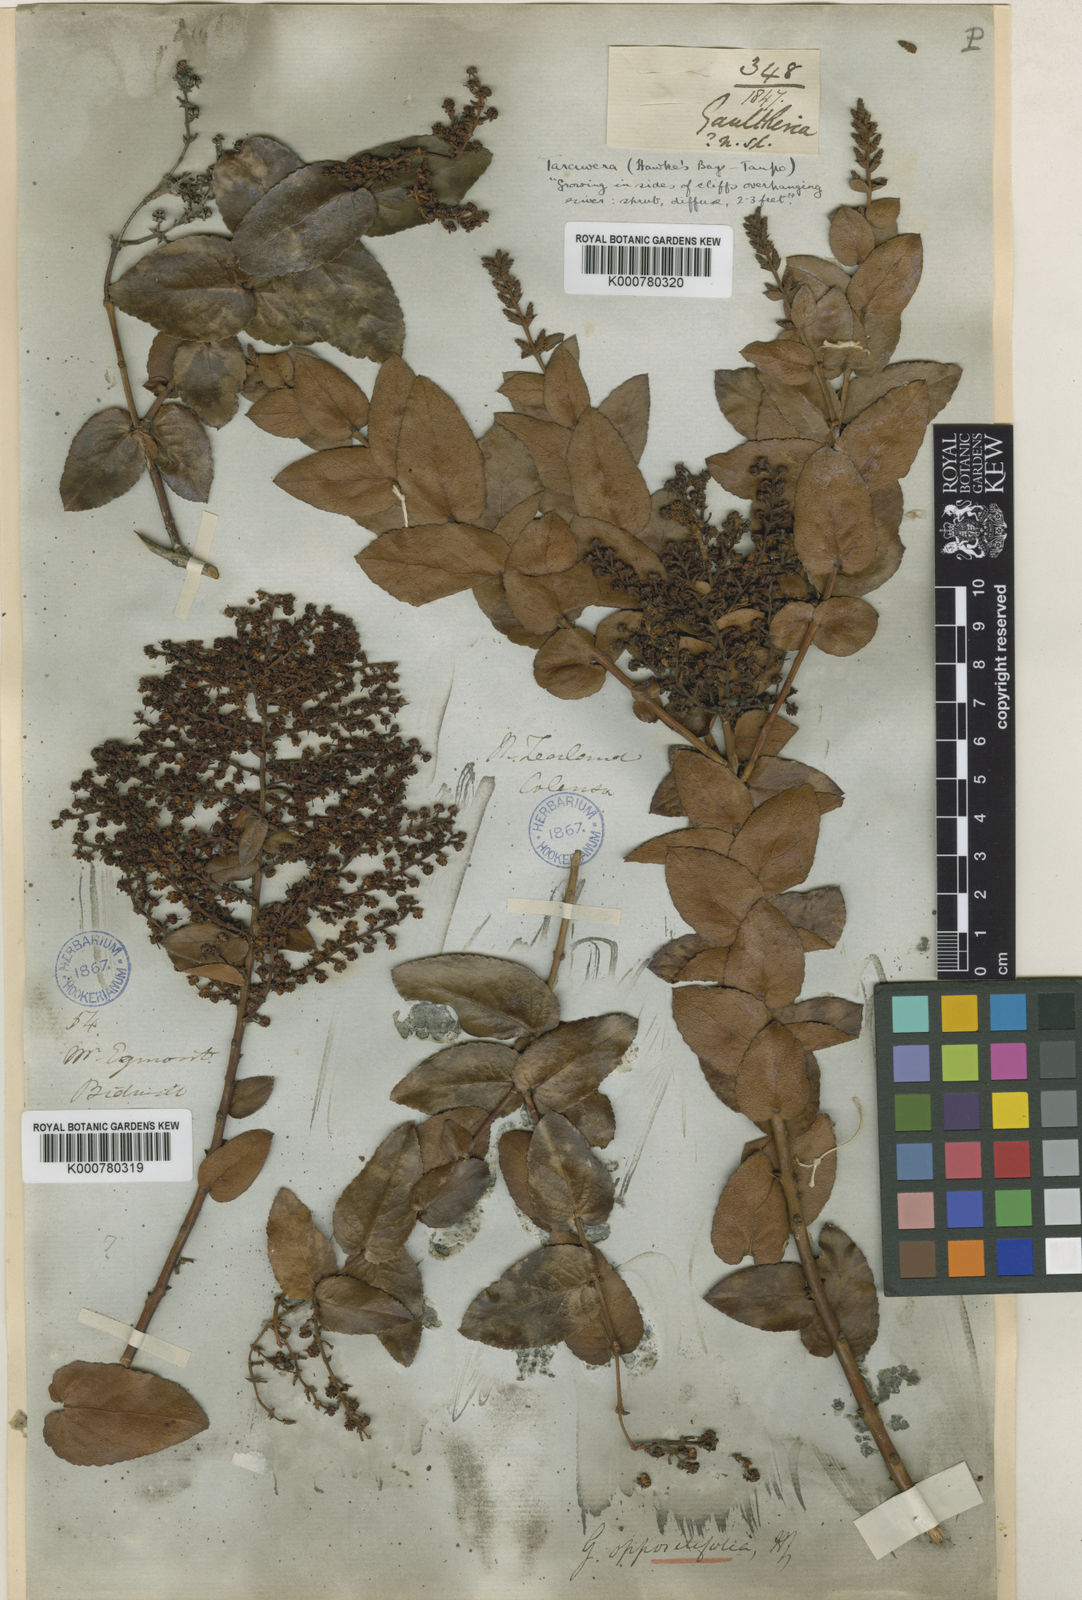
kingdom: Plantae
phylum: Tracheophyta
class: Magnoliopsida
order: Ericales
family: Ericaceae
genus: Gaultheria
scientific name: Gaultheria oppositifolia
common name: Snowberry
